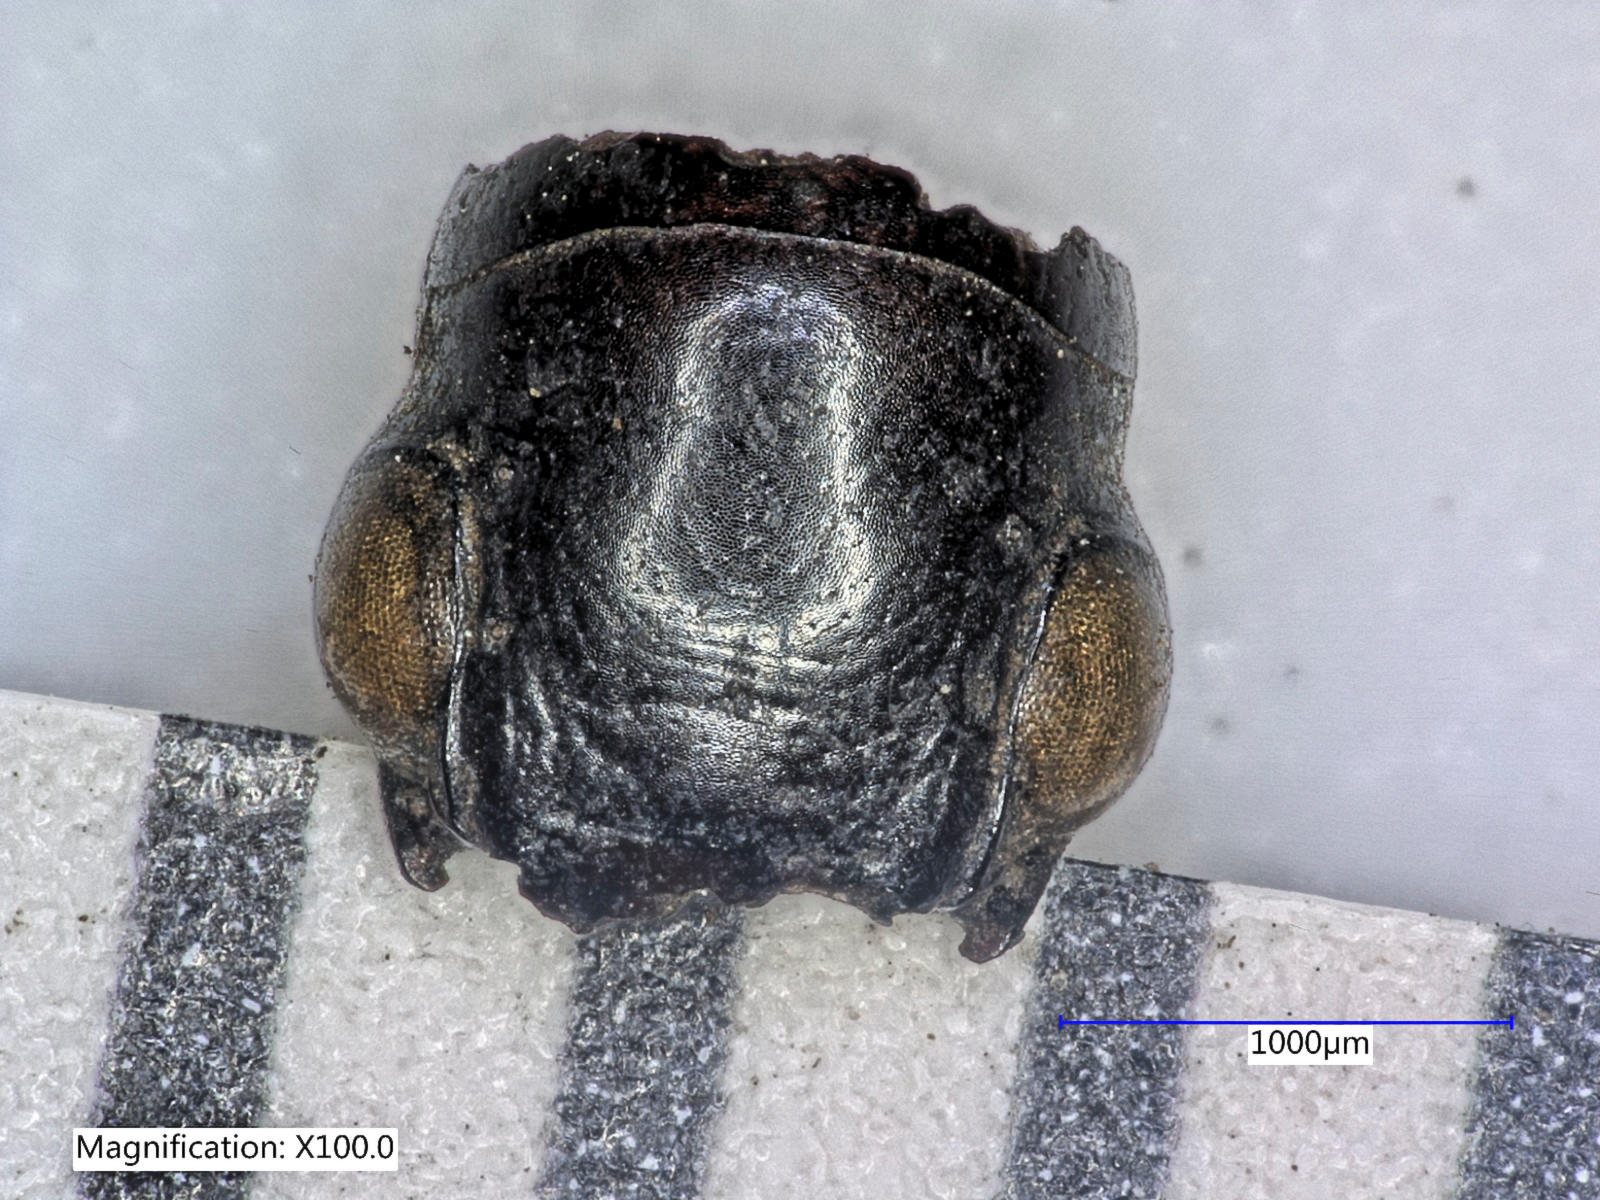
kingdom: Animalia
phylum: Arthropoda
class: Insecta
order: Coleoptera
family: Carabidae
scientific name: Carabidae
